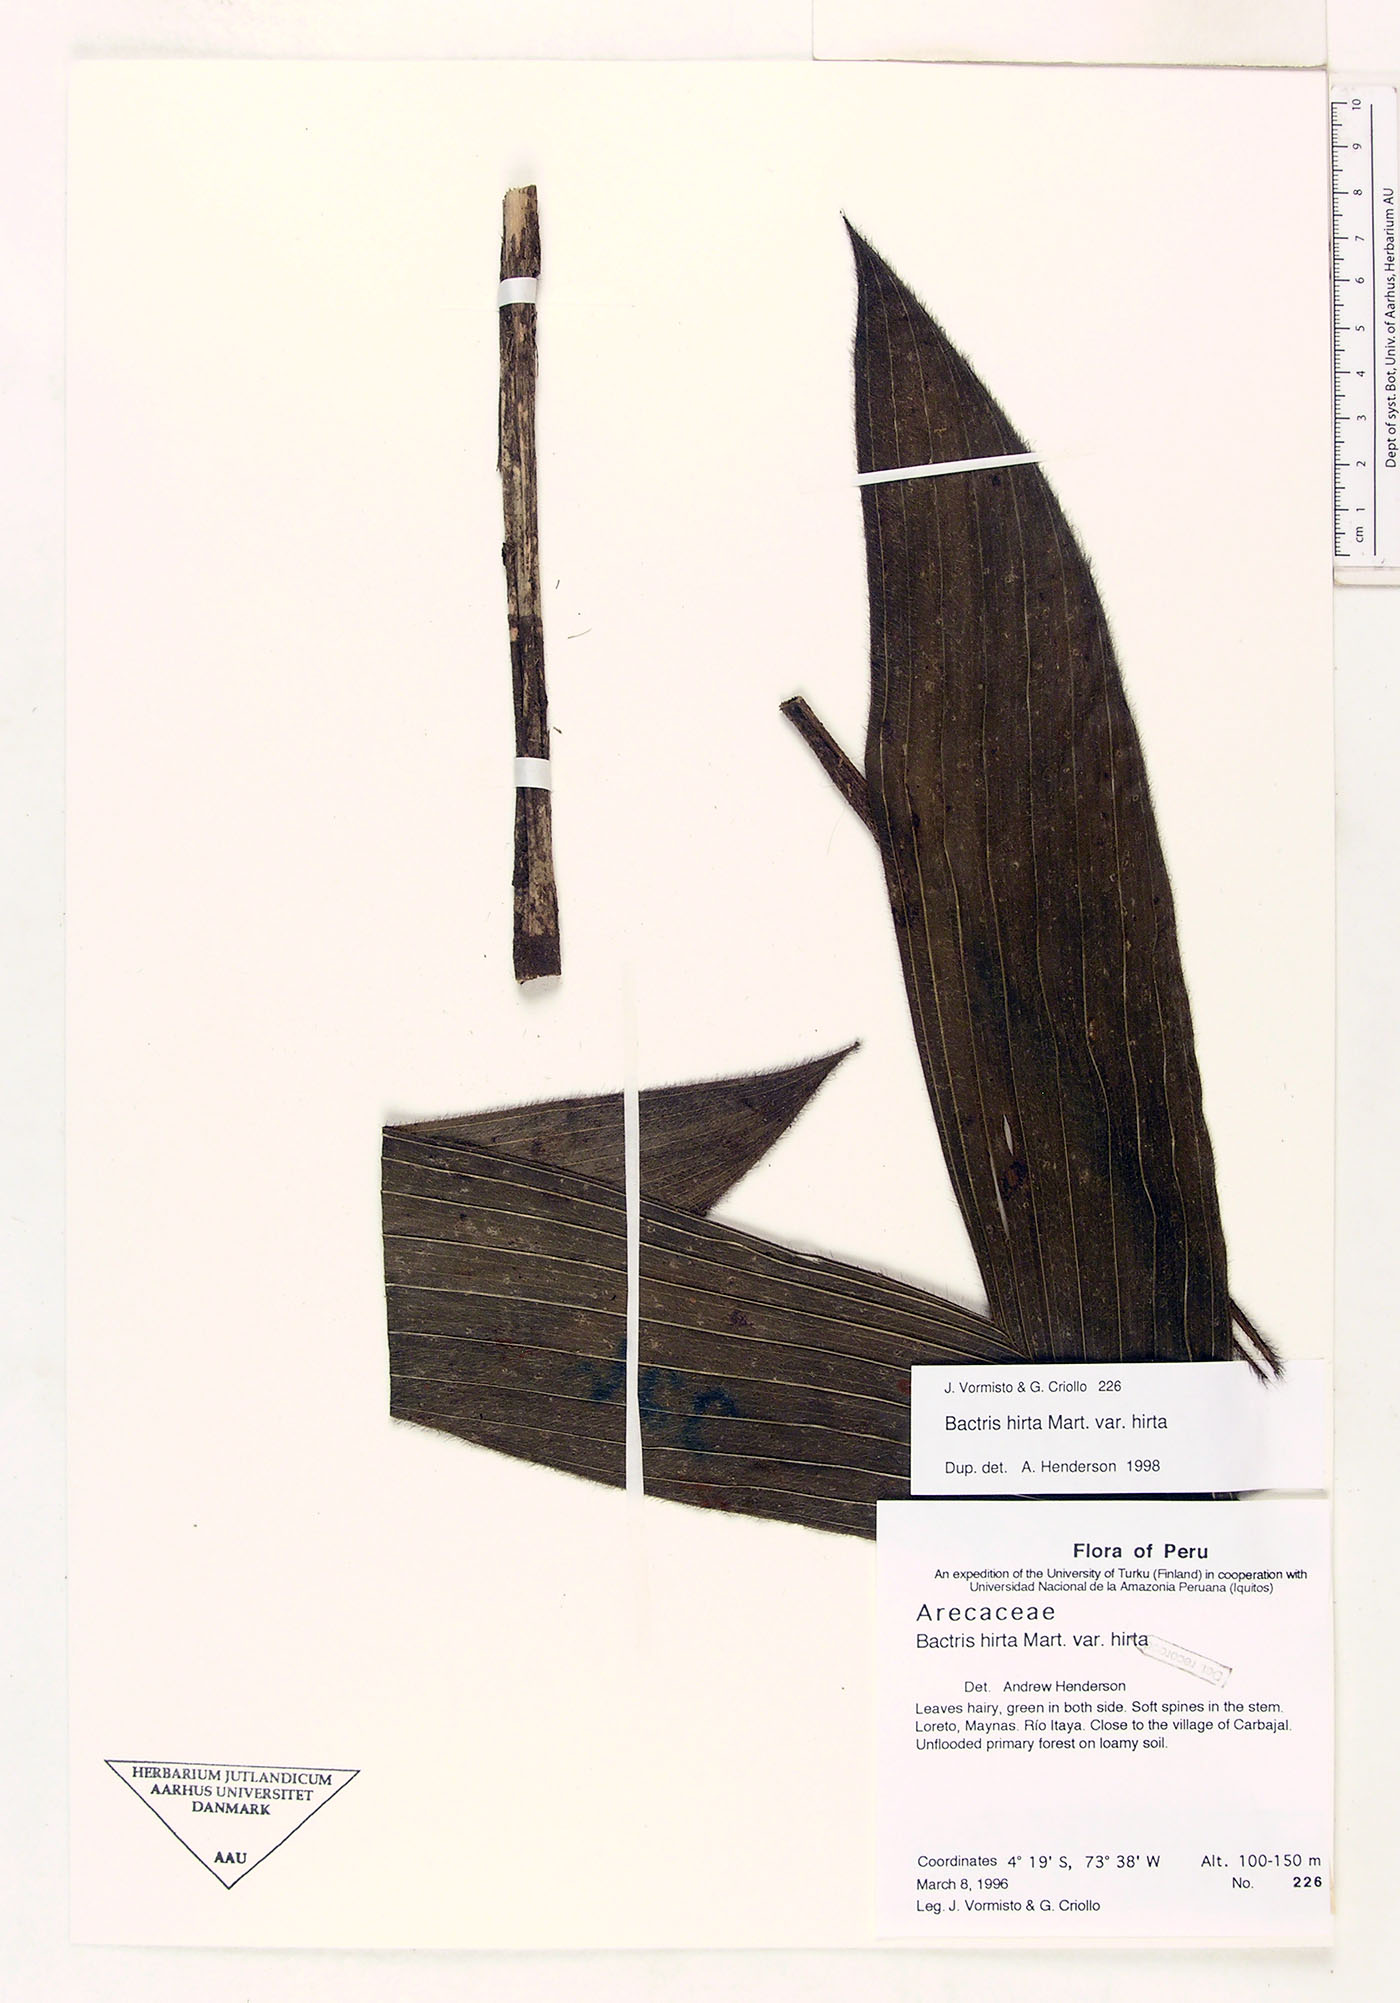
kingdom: Plantae
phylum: Tracheophyta
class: Liliopsida
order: Arecales
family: Arecaceae
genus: Bactris
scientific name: Bactris hirta
